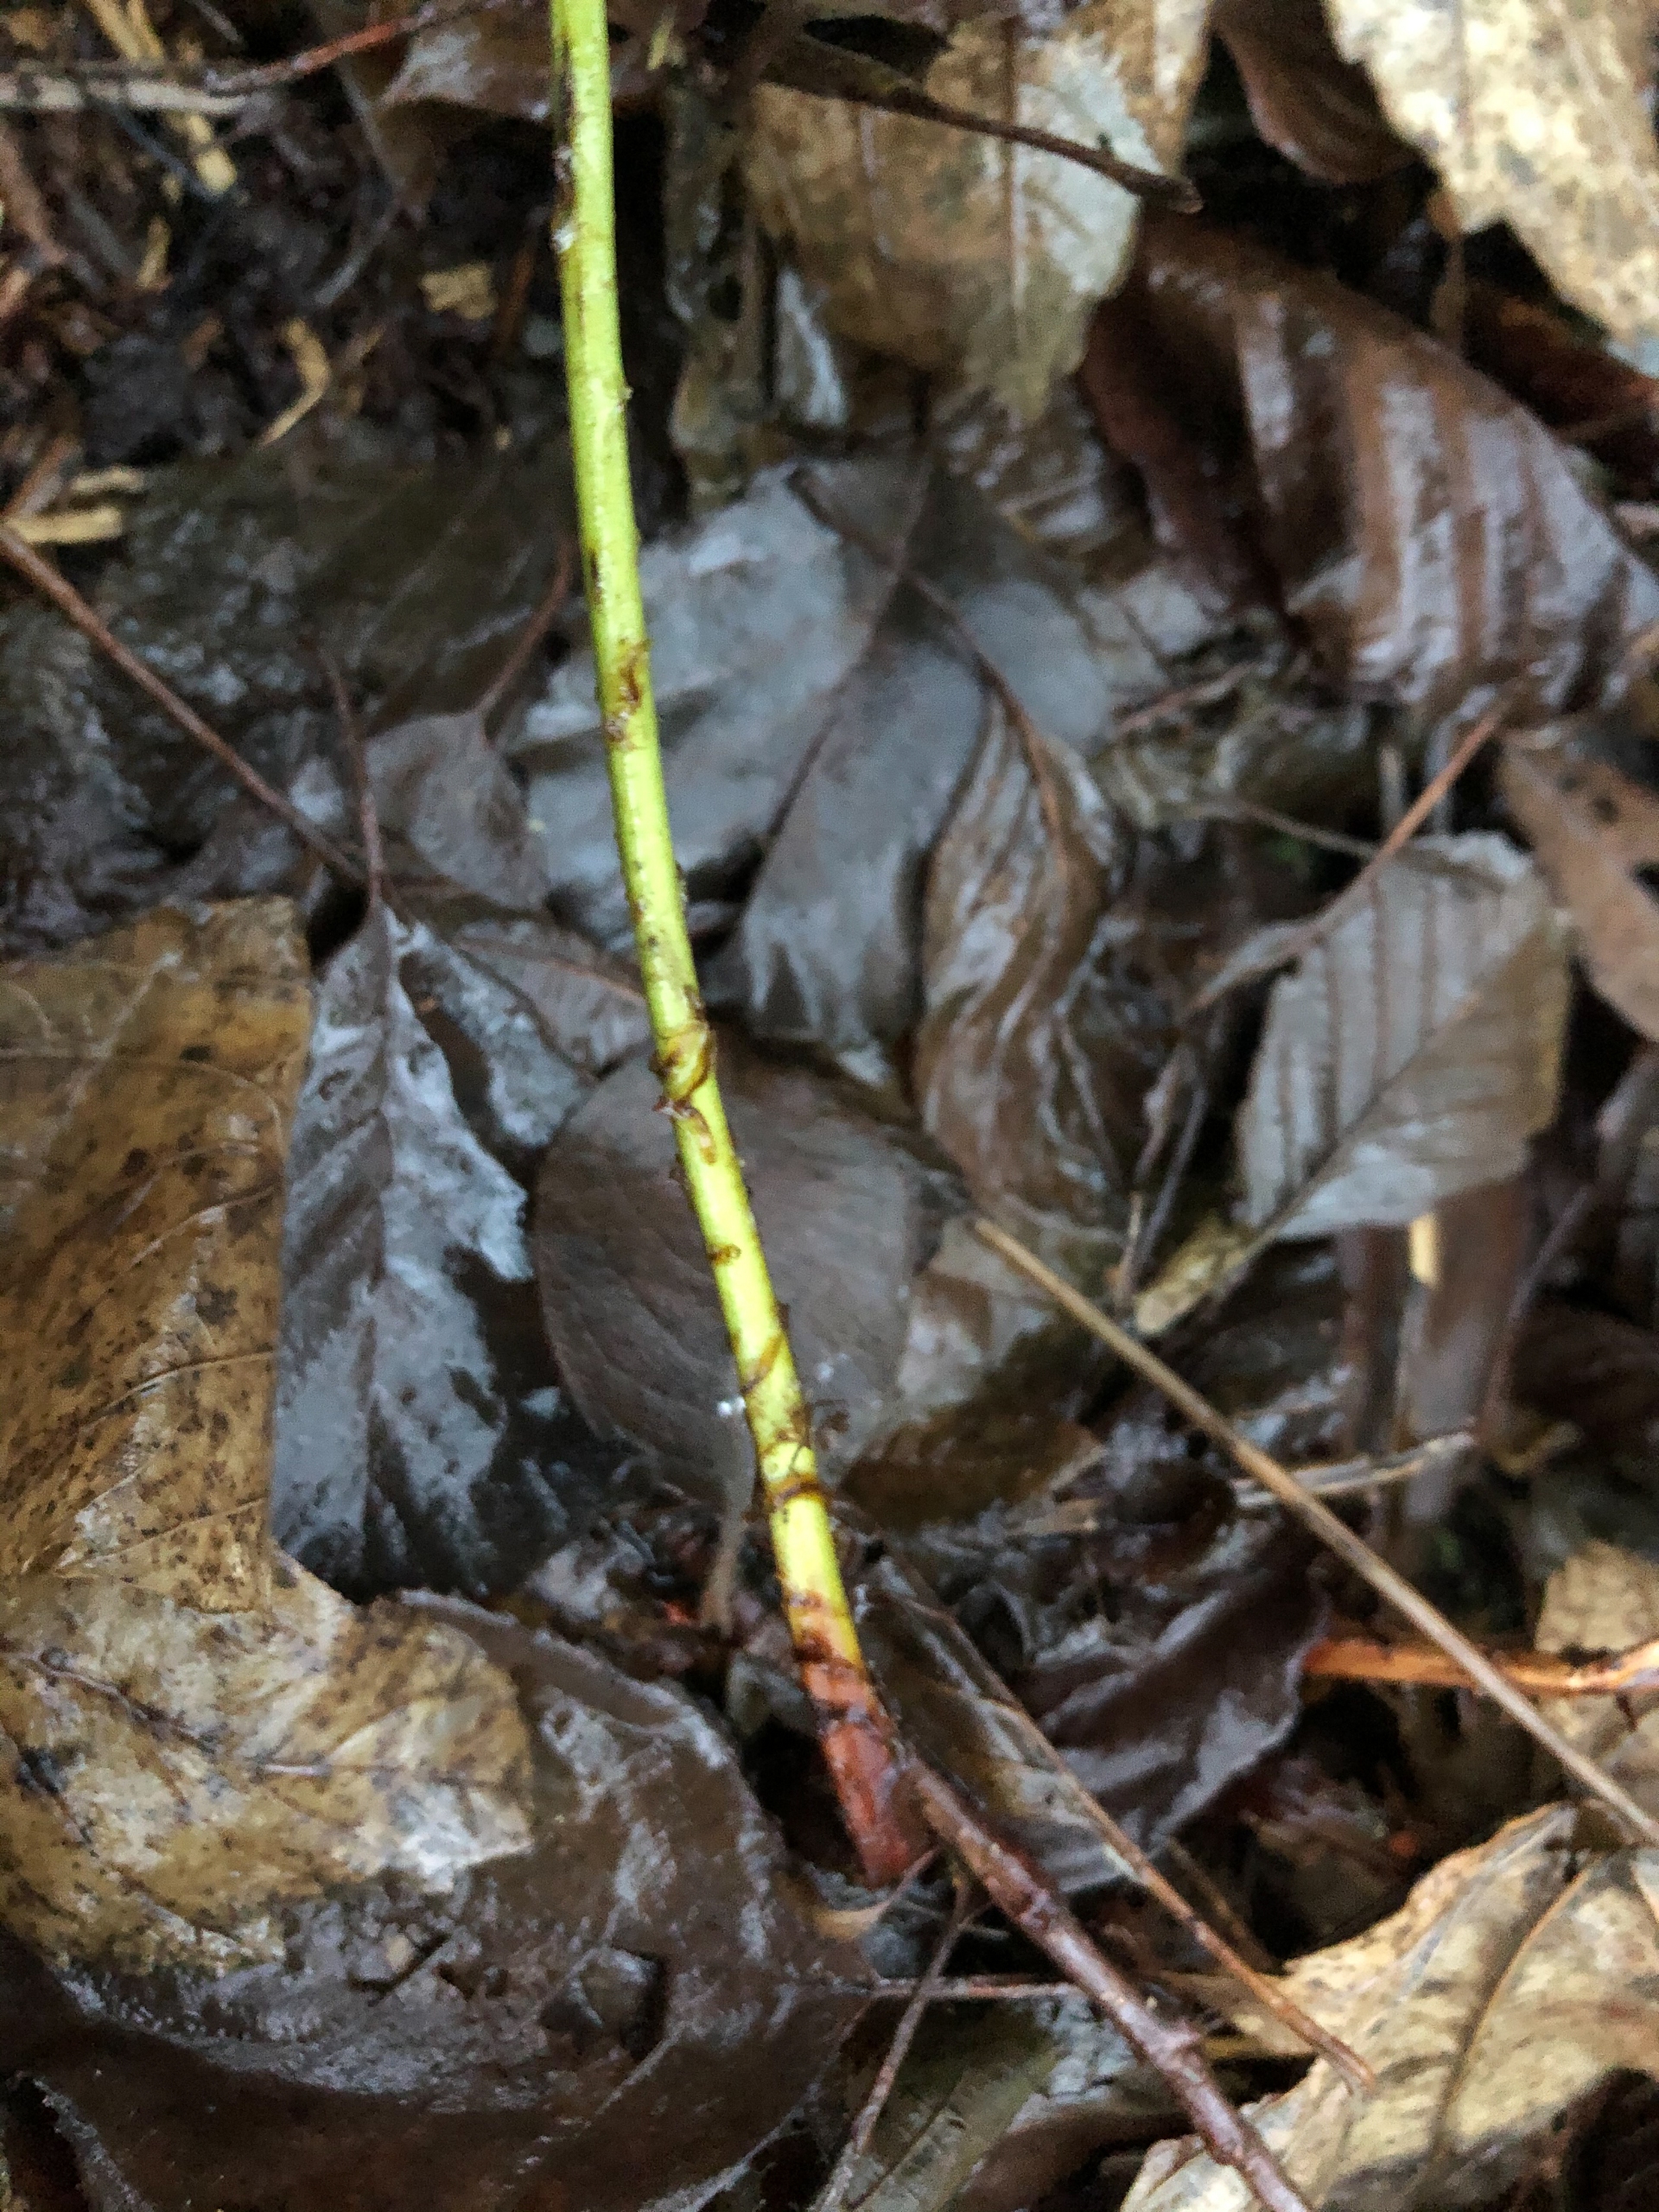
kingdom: Plantae
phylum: Tracheophyta
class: Polypodiopsida
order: Polypodiales
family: Dryopteridaceae
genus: Dryopteris
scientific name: Dryopteris dilatata
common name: Bredbladet mangeløv
